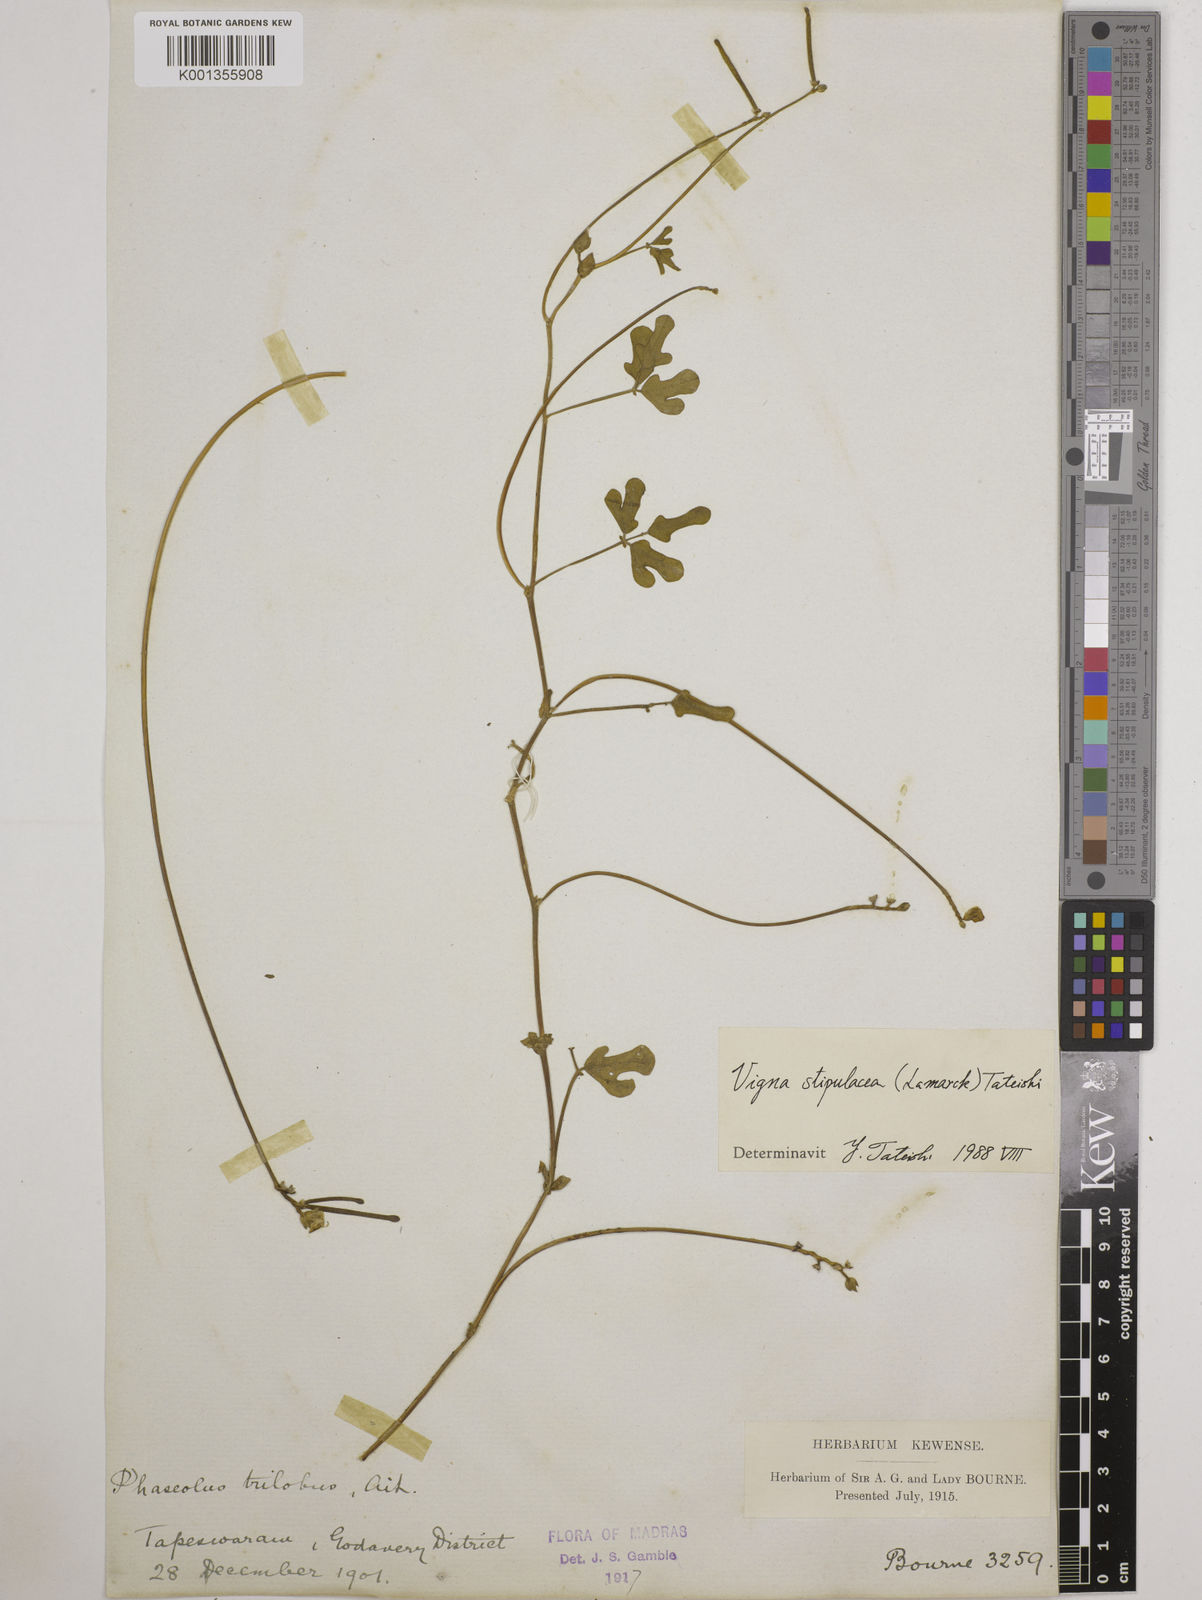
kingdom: Plantae
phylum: Tracheophyta
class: Magnoliopsida
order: Fabales
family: Fabaceae
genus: Pueraria
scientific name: Pueraria montana
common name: Kudzu
